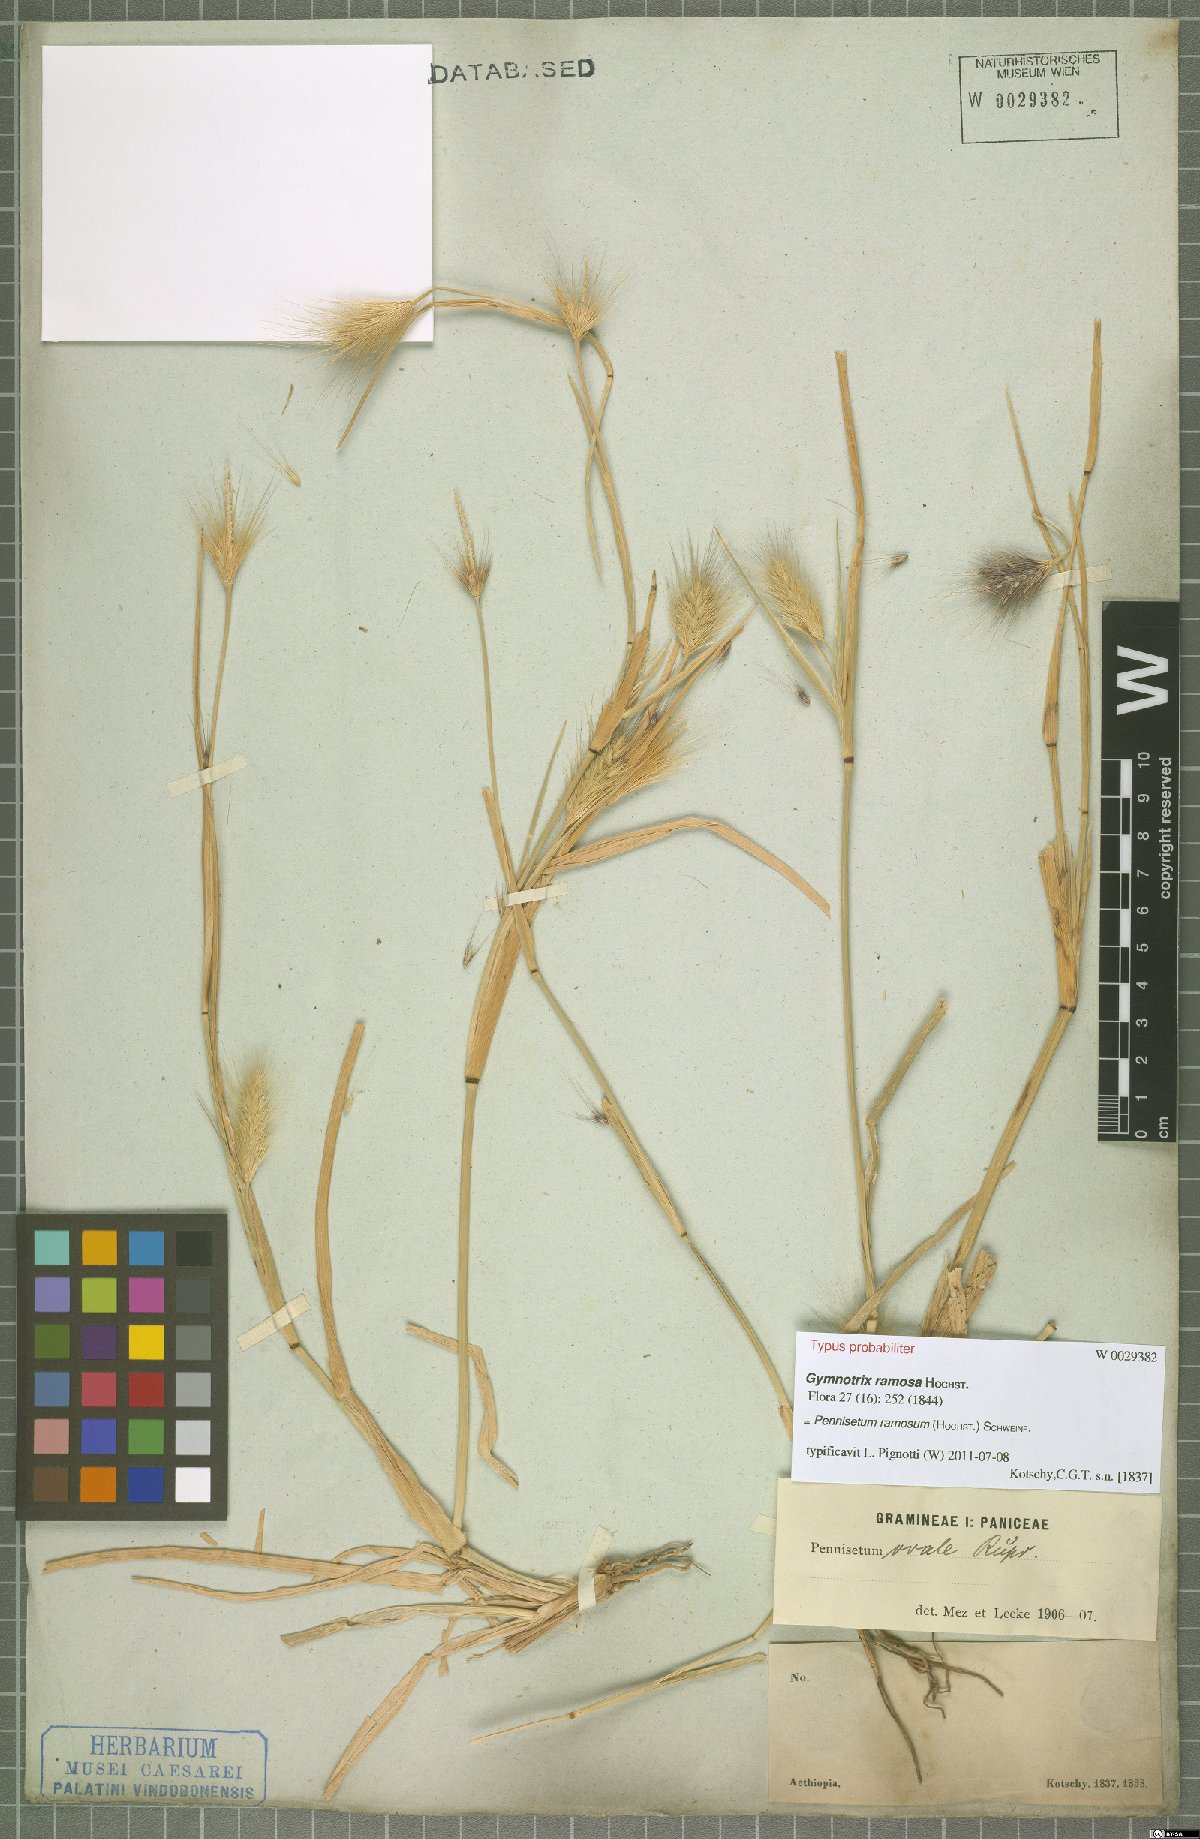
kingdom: Plantae
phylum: Tracheophyta
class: Liliopsida
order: Poales
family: Poaceae
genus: Cenchrus
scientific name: Cenchrus ramosus
